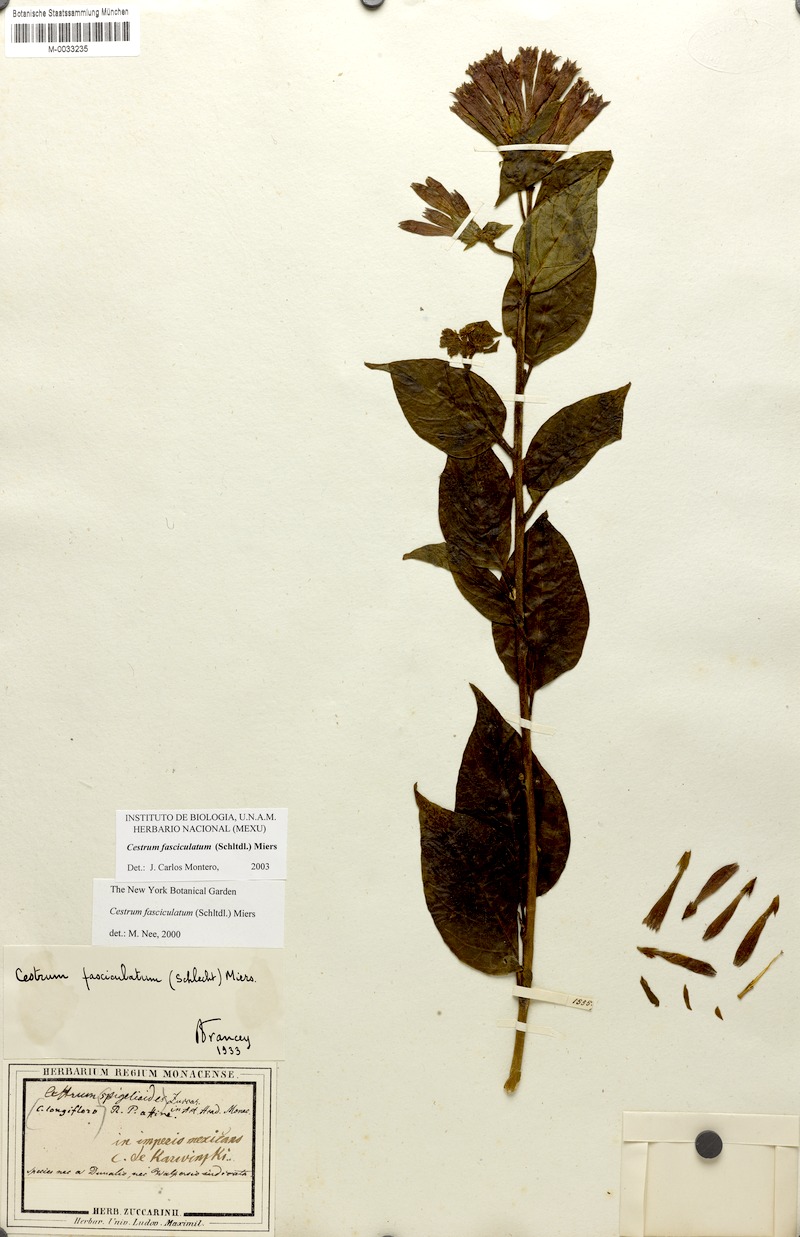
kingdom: Plantae
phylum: Tracheophyta
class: Magnoliopsida
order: Solanales
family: Solanaceae
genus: Cestrum
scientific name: Cestrum fasciculatum
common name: Early jessamine
